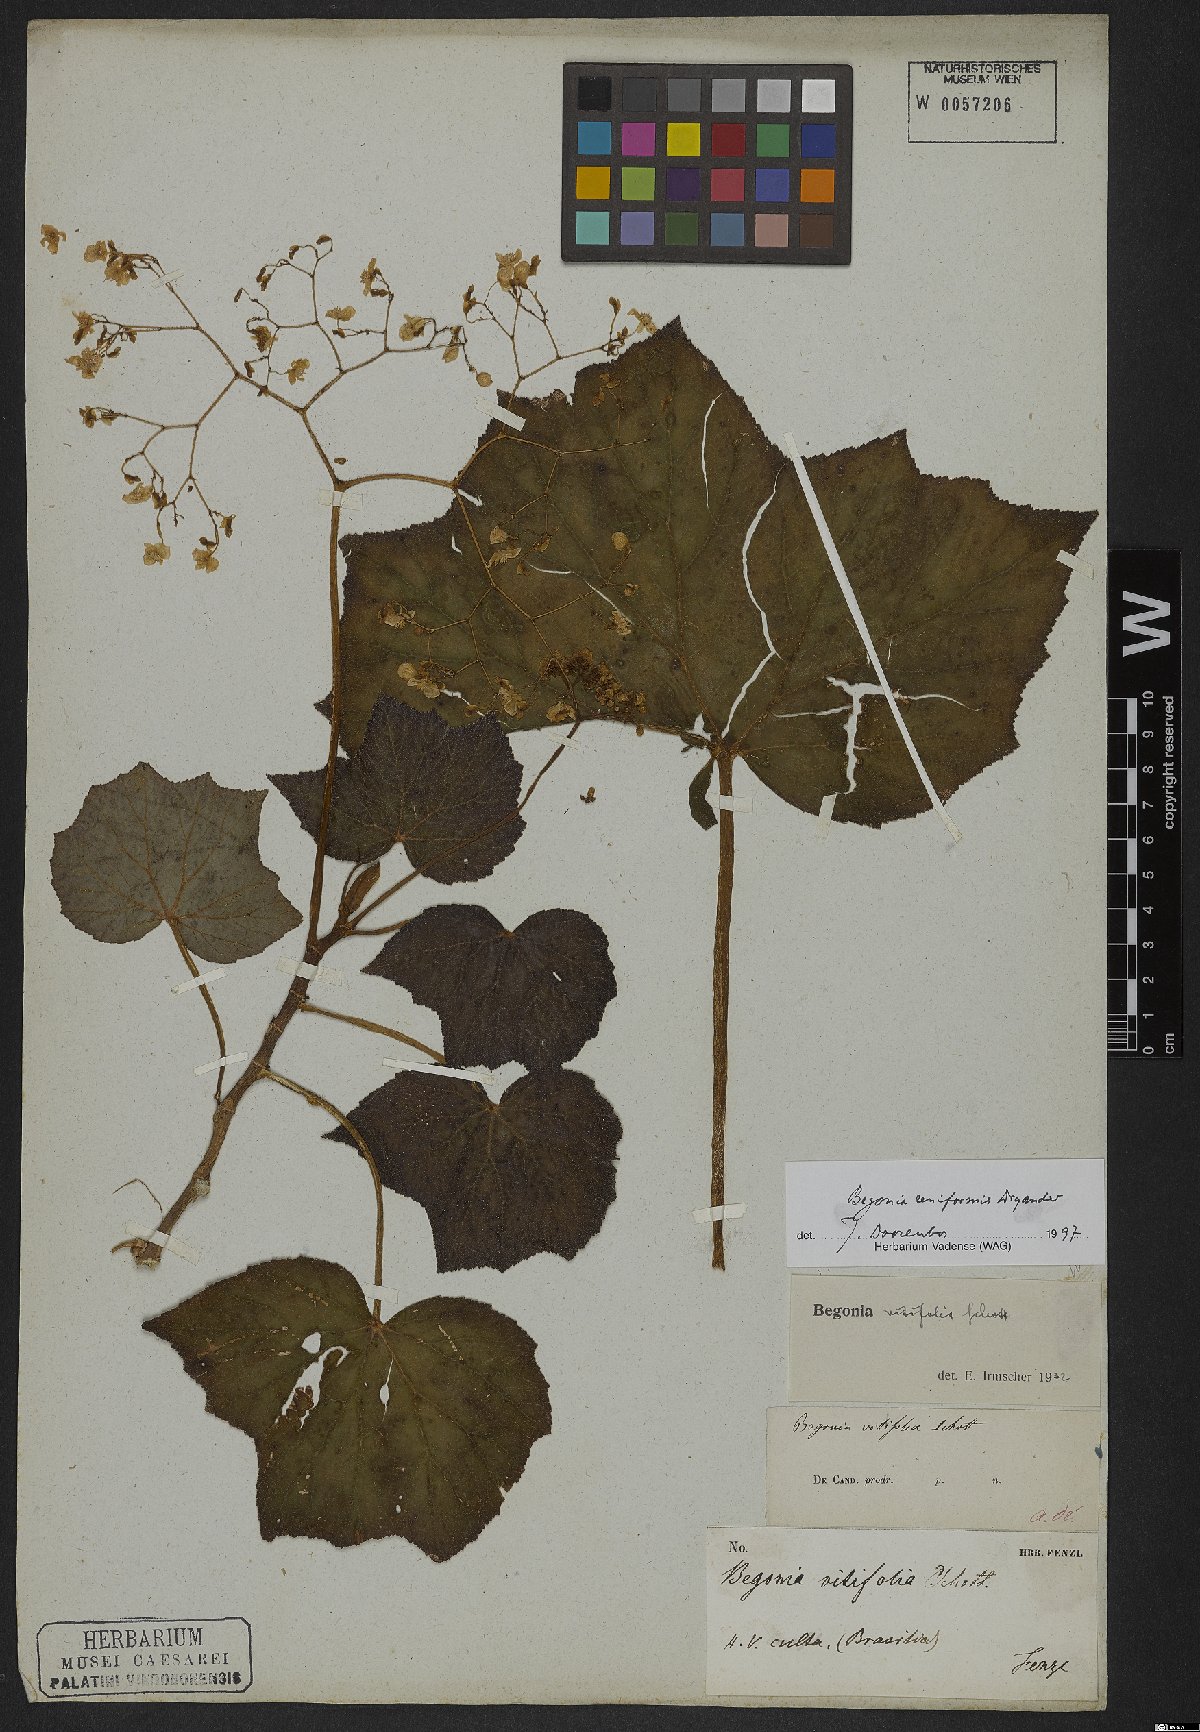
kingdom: Plantae
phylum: Tracheophyta
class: Magnoliopsida
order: Cucurbitales
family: Begoniaceae
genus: Begonia
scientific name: Begonia reniformis
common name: Grapeleaf begonia
